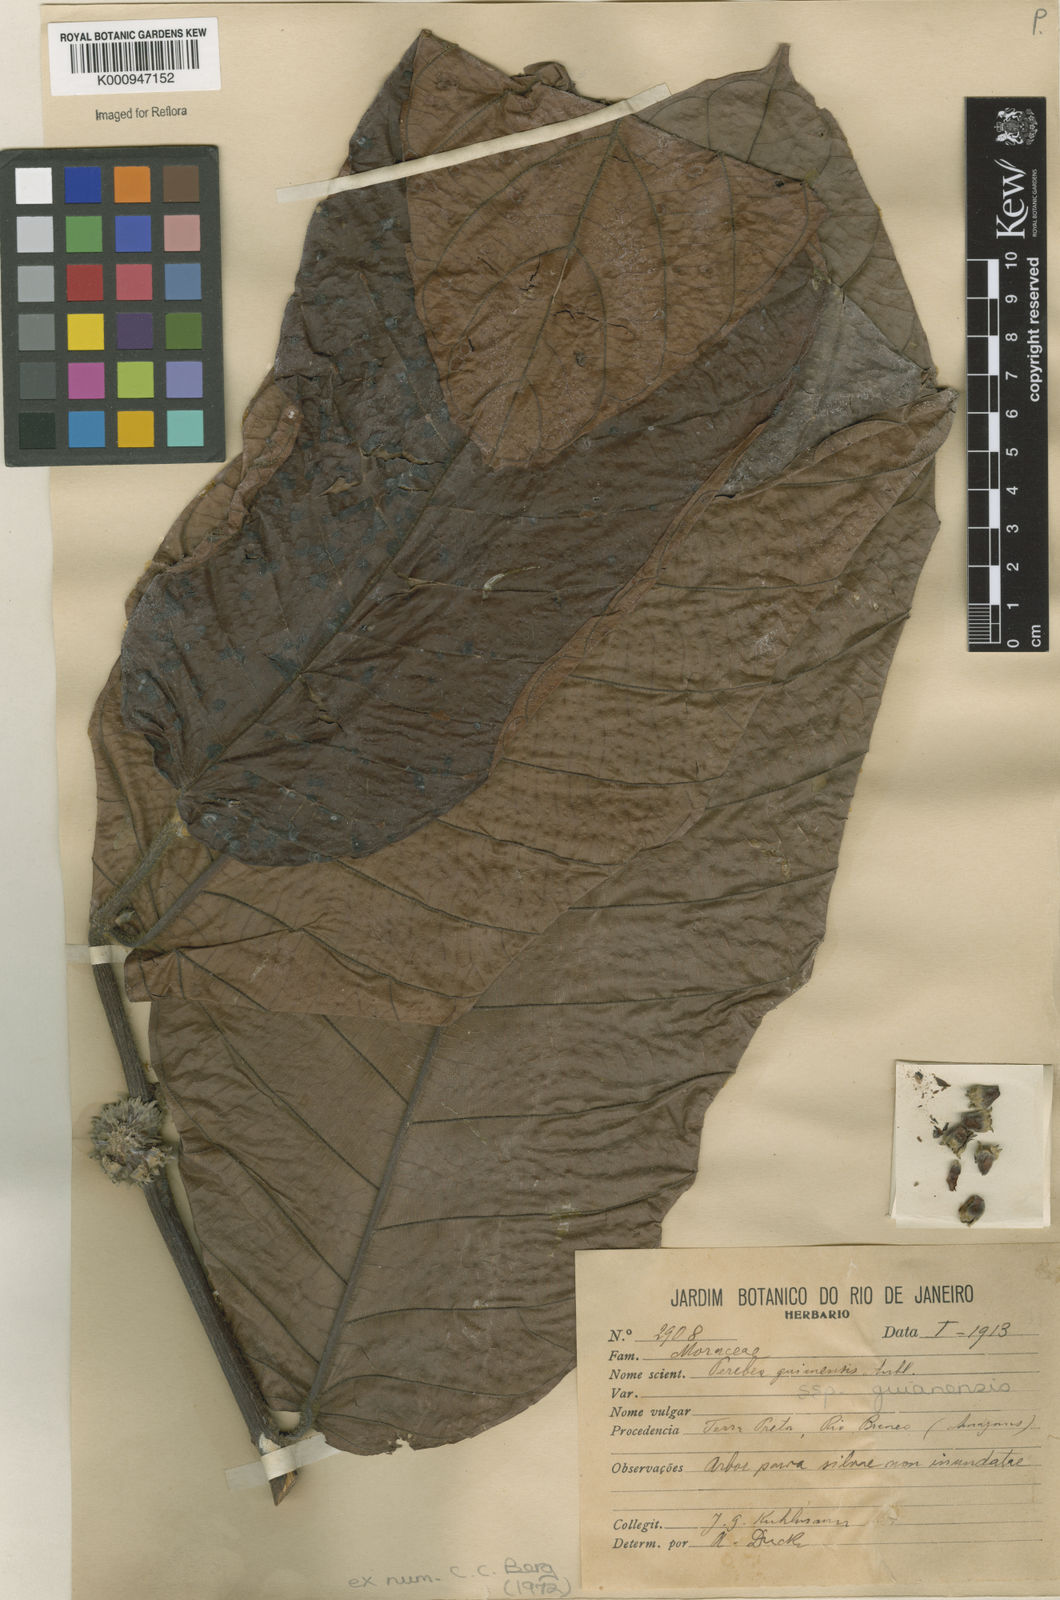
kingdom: Plantae
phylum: Tracheophyta
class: Magnoliopsida
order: Rosales
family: Moraceae
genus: Perebea
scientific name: Perebea guianensis
